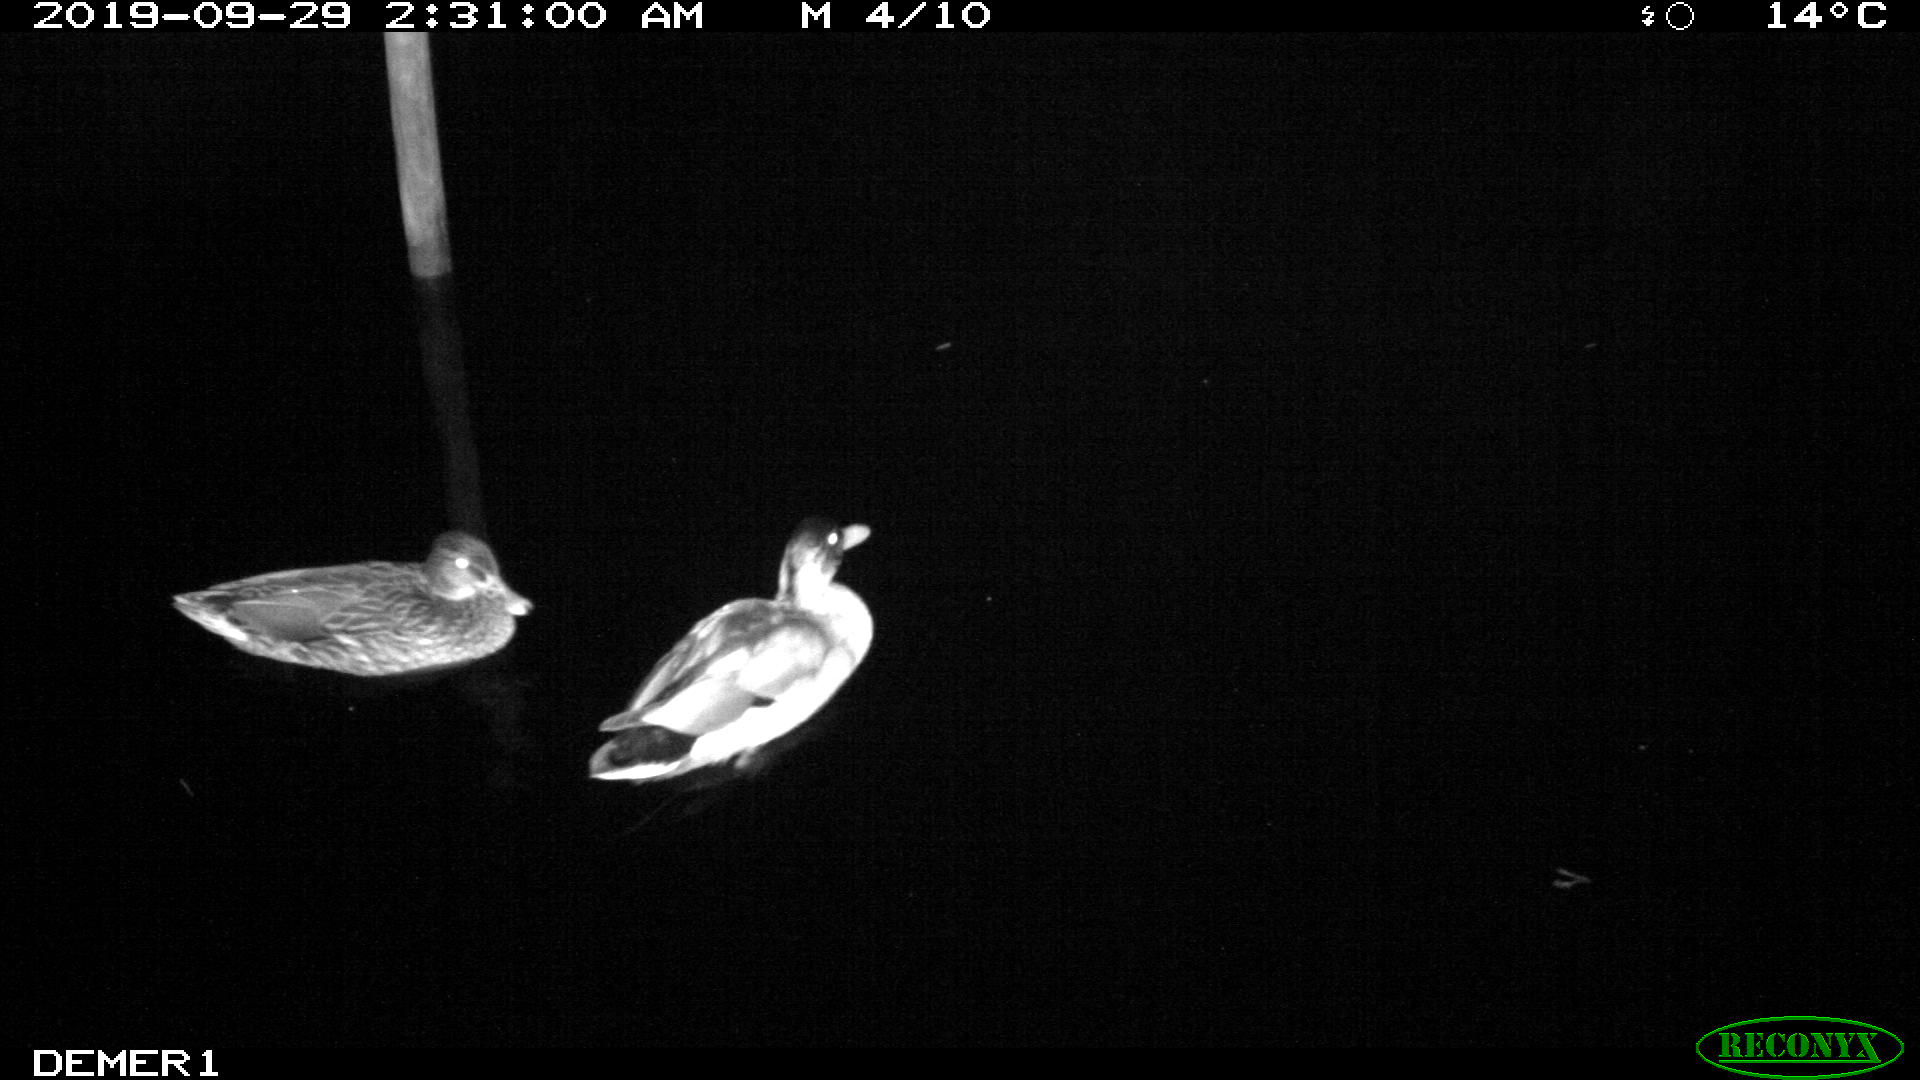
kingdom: Animalia
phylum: Chordata
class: Aves
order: Anseriformes
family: Anatidae
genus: Anas
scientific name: Anas platyrhynchos
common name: Mallard
